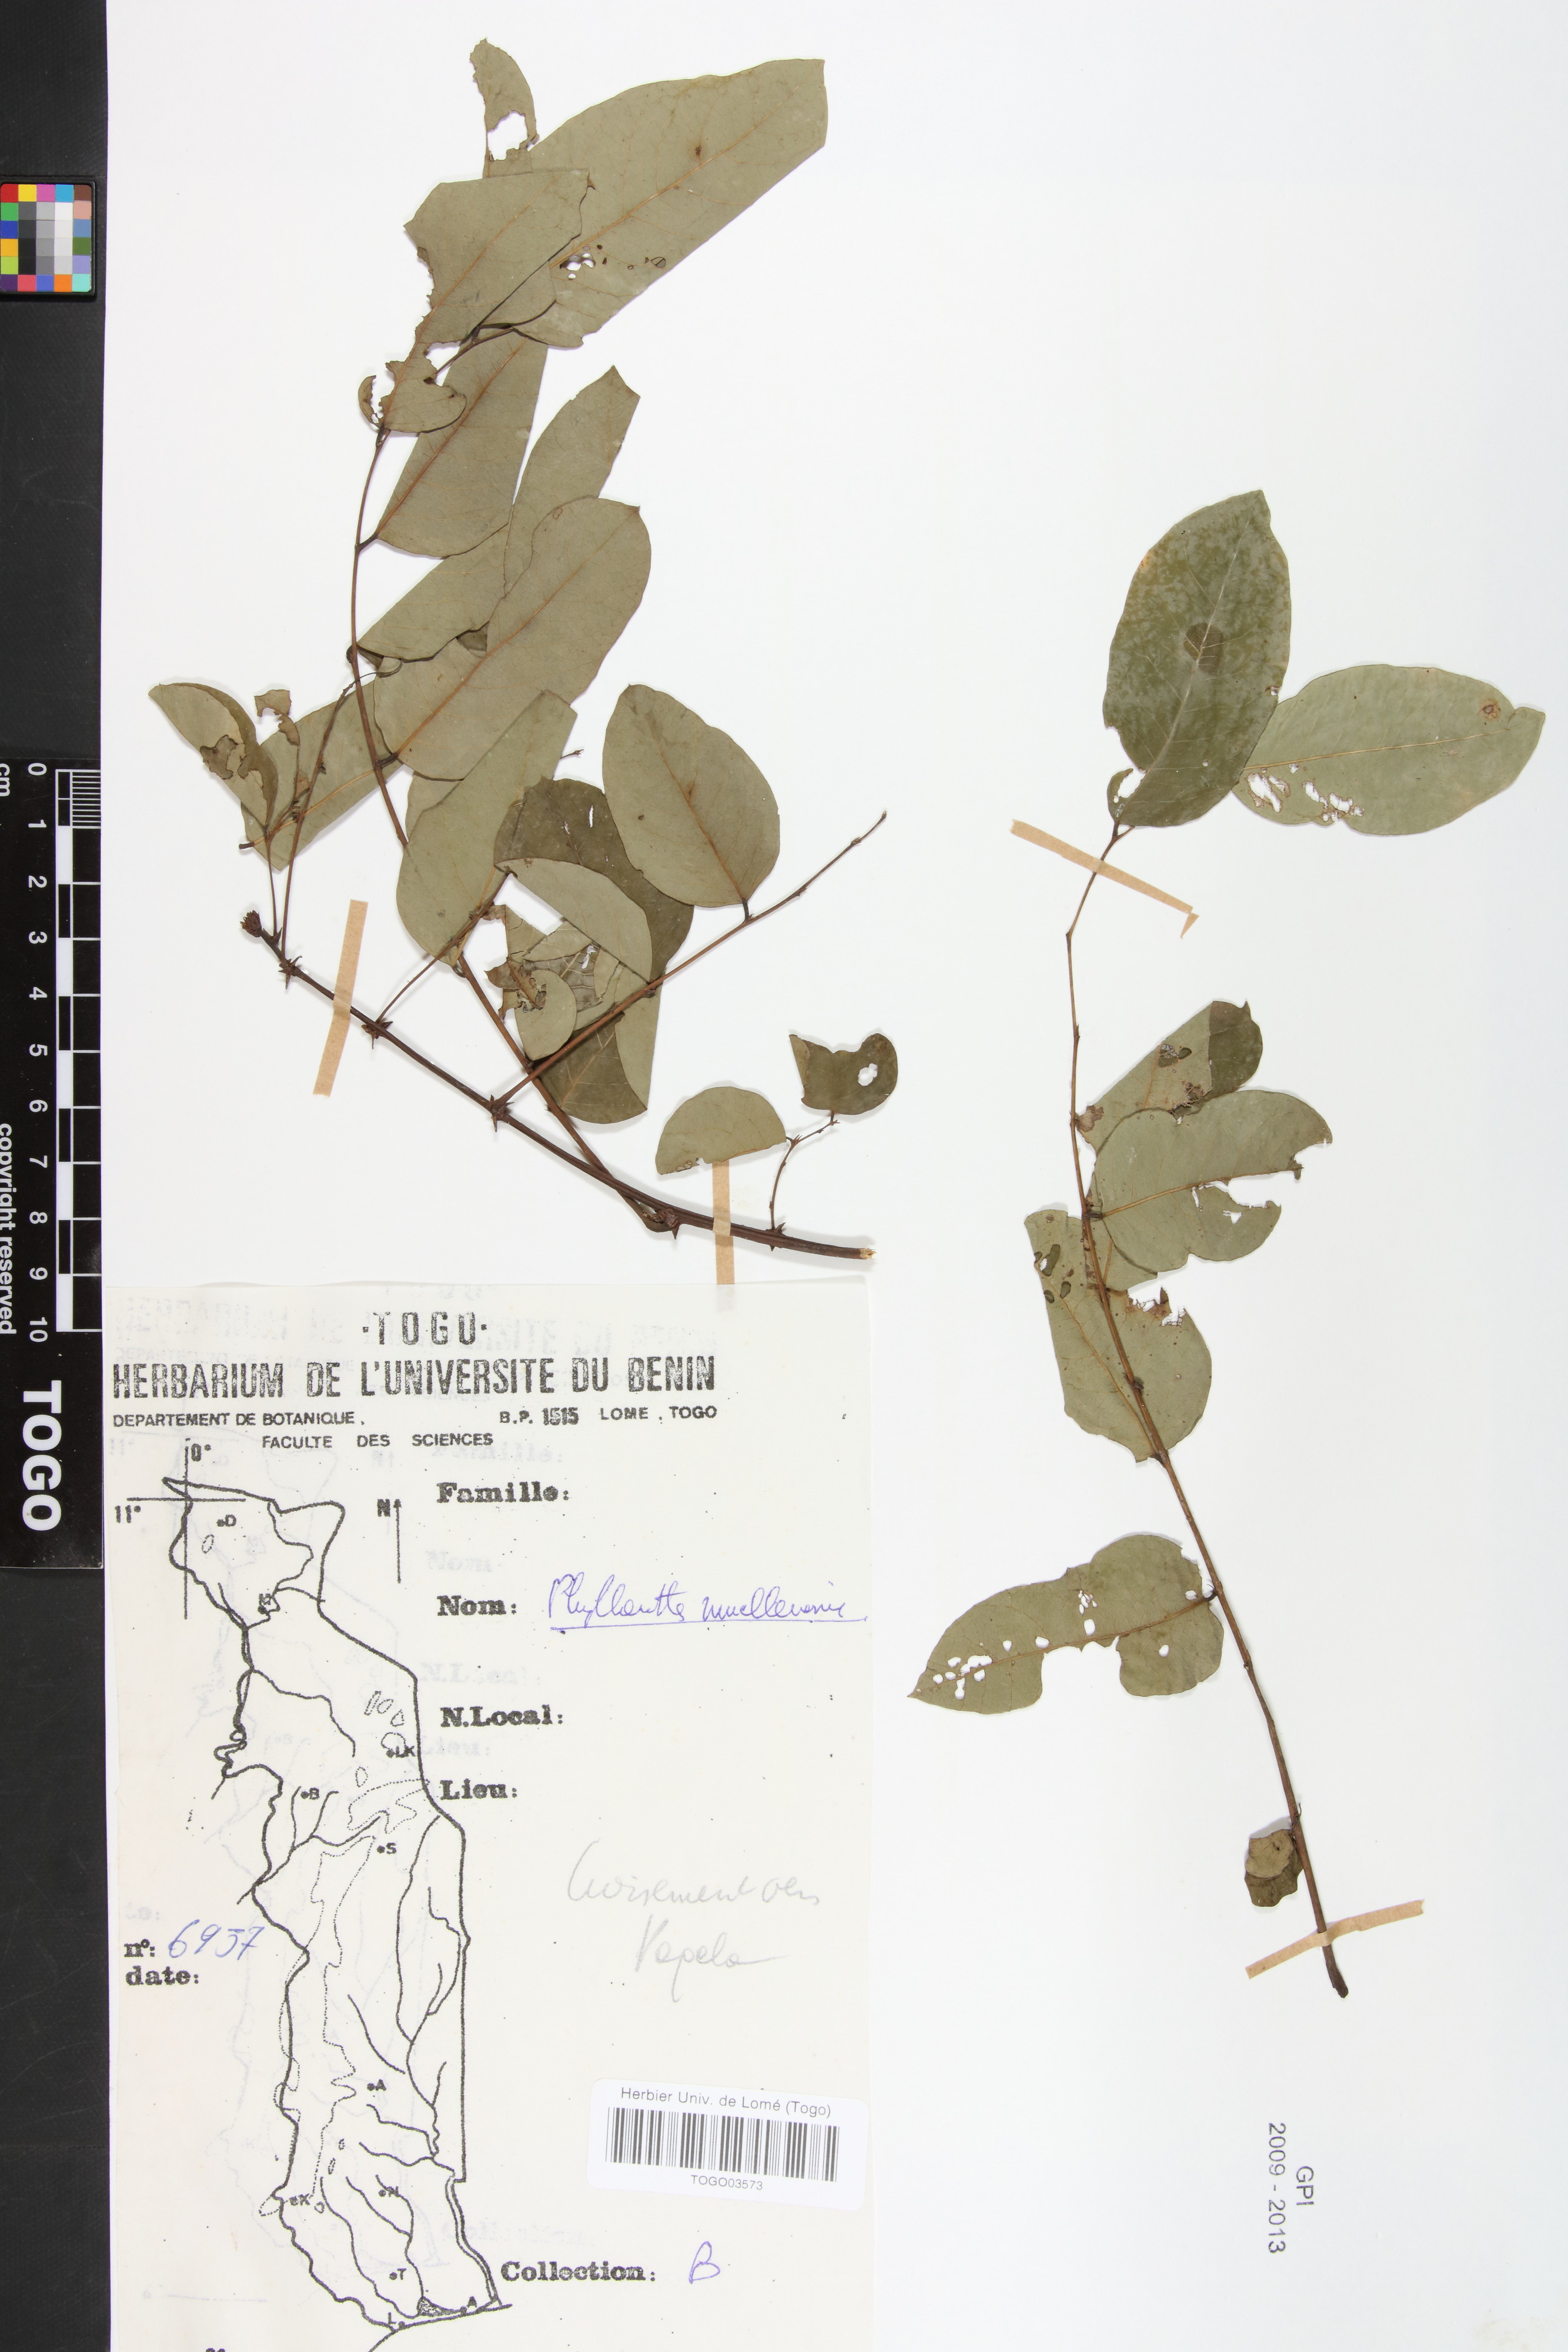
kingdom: Plantae
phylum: Tracheophyta
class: Magnoliopsida
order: Malpighiales
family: Phyllanthaceae
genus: Phyllanthus
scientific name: Phyllanthus muellerianus
